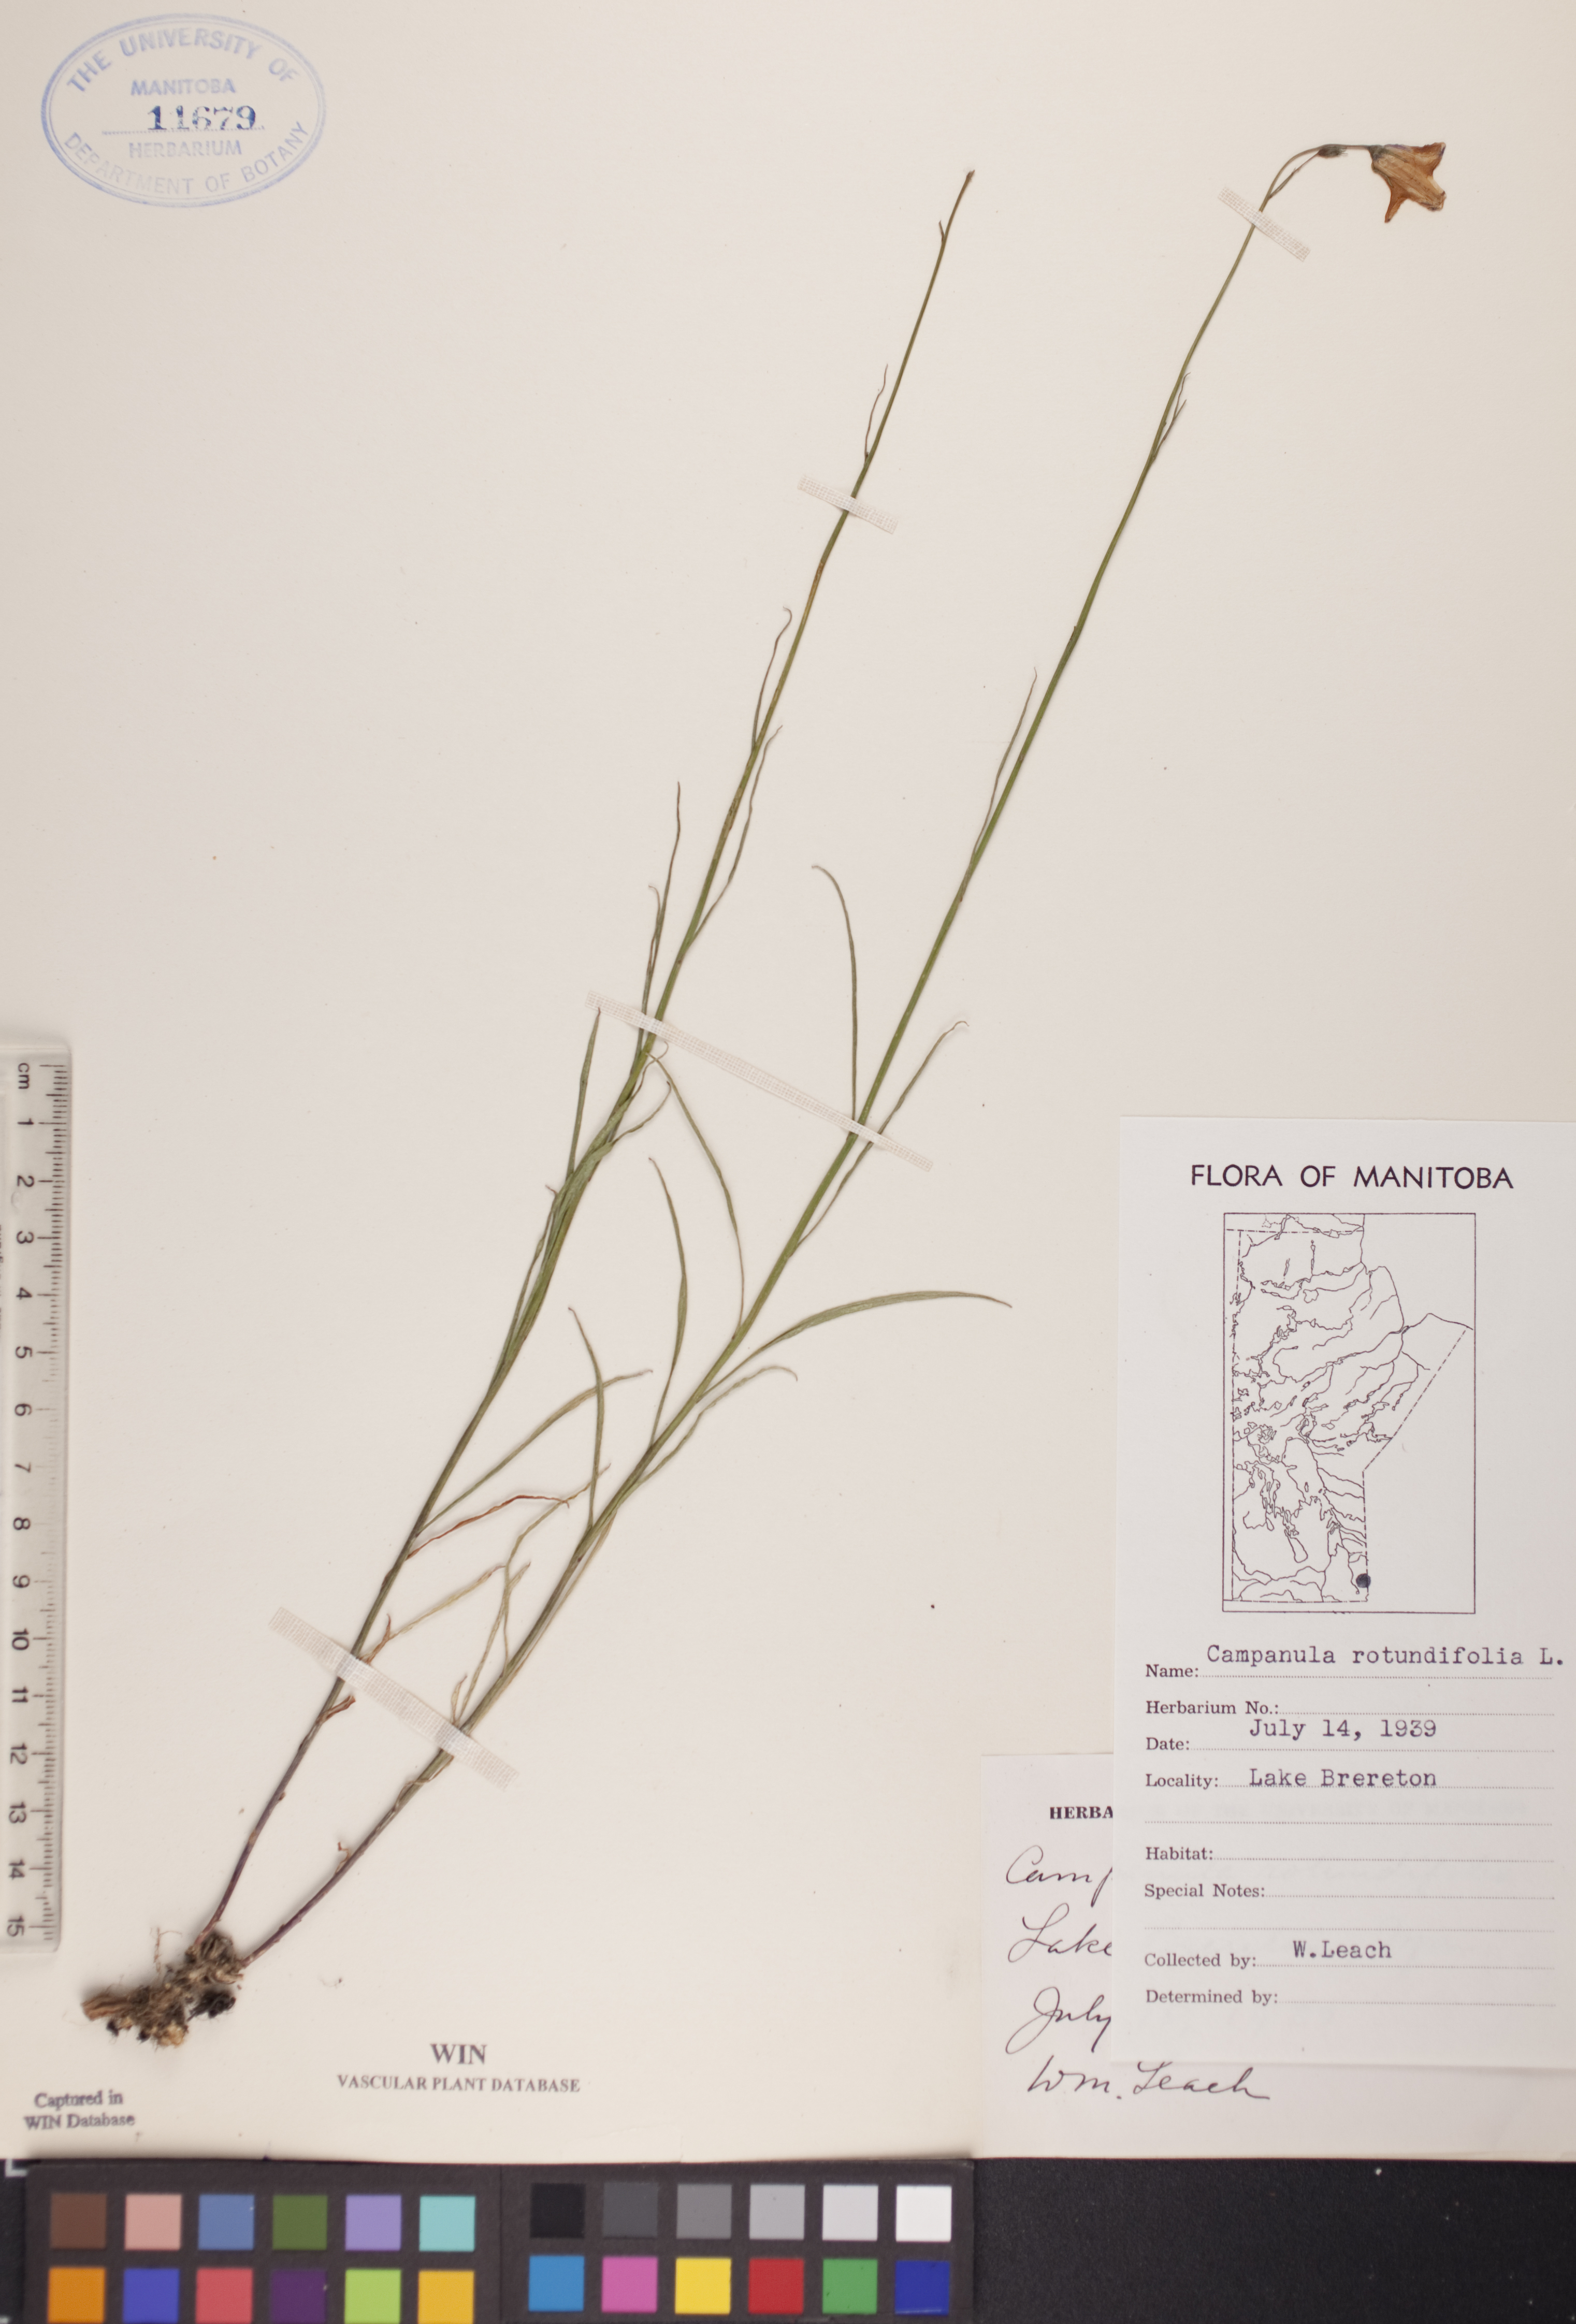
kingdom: Plantae
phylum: Tracheophyta
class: Magnoliopsida
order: Asterales
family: Campanulaceae
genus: Campanula
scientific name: Campanula rotundifolia
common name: Harebell
